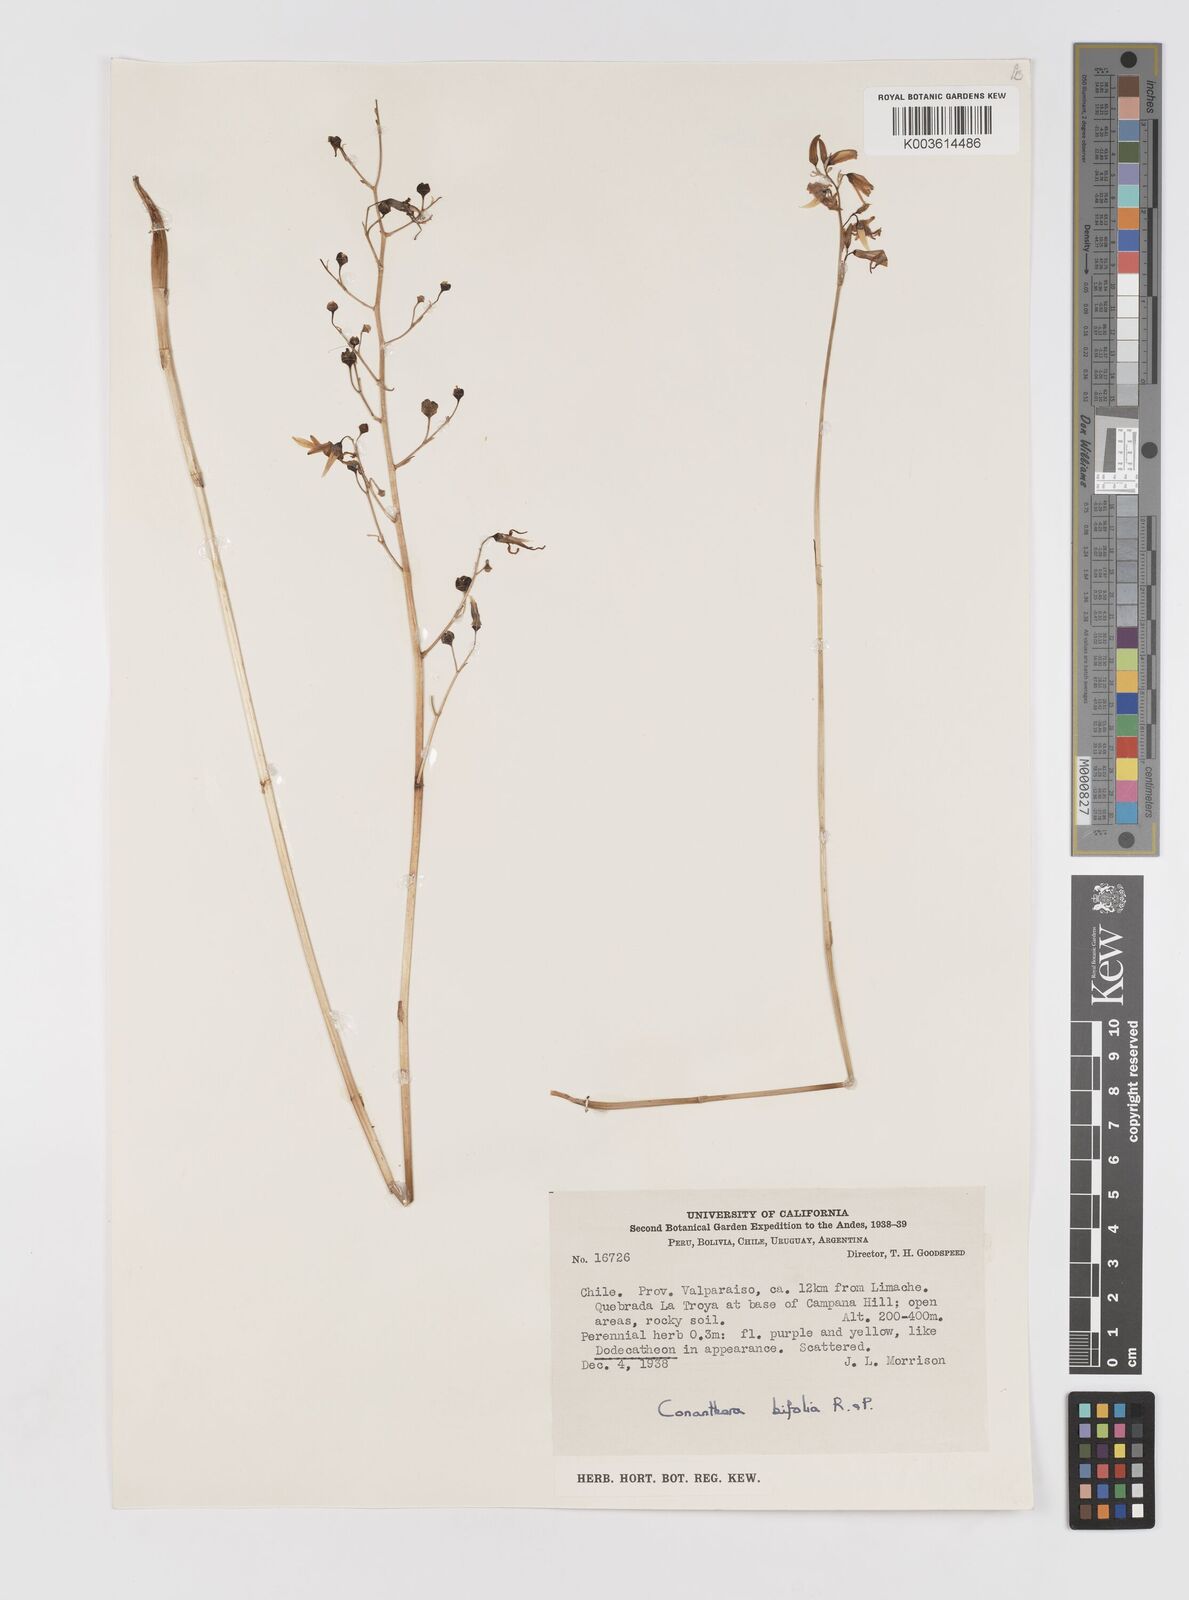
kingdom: Plantae
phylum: Tracheophyta
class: Liliopsida
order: Asparagales
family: Tecophilaeaceae
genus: Conanthera
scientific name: Conanthera bifolia
